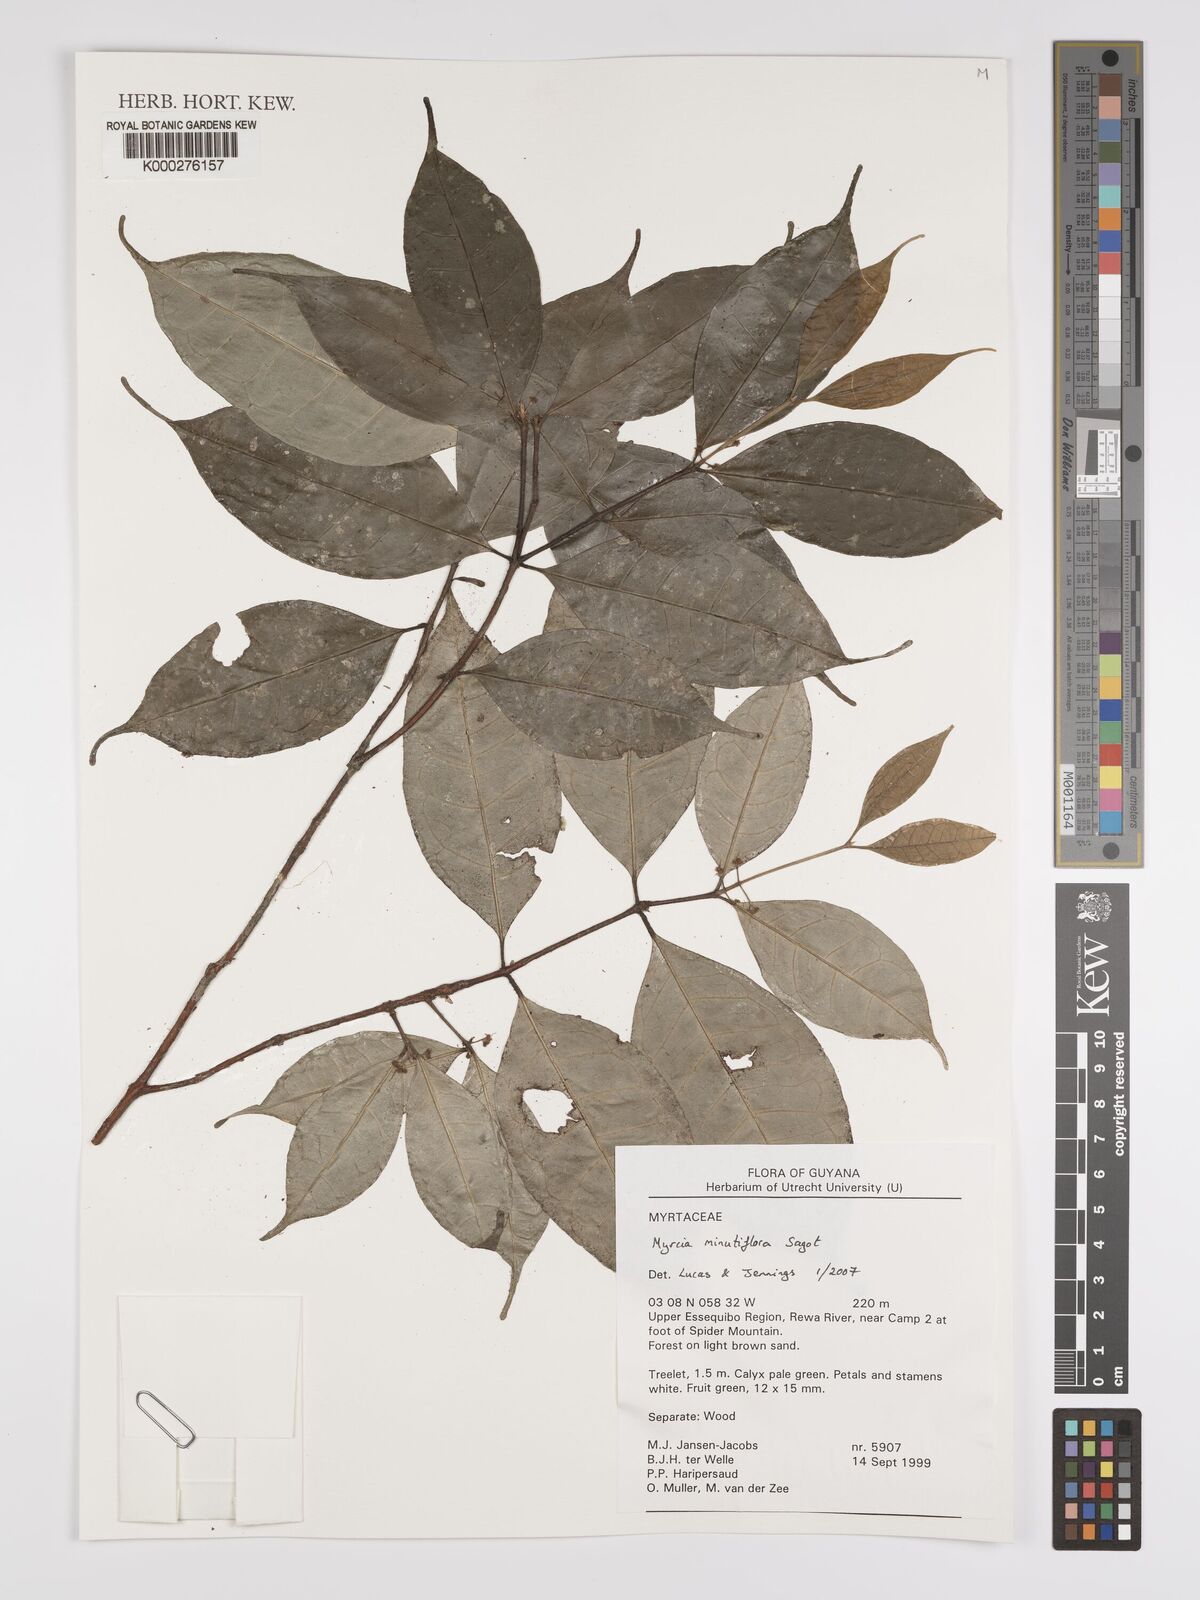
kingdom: Plantae
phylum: Tracheophyta
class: Magnoliopsida
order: Myrtales
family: Myrtaceae
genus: Myrcia
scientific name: Myrcia minutiflora
